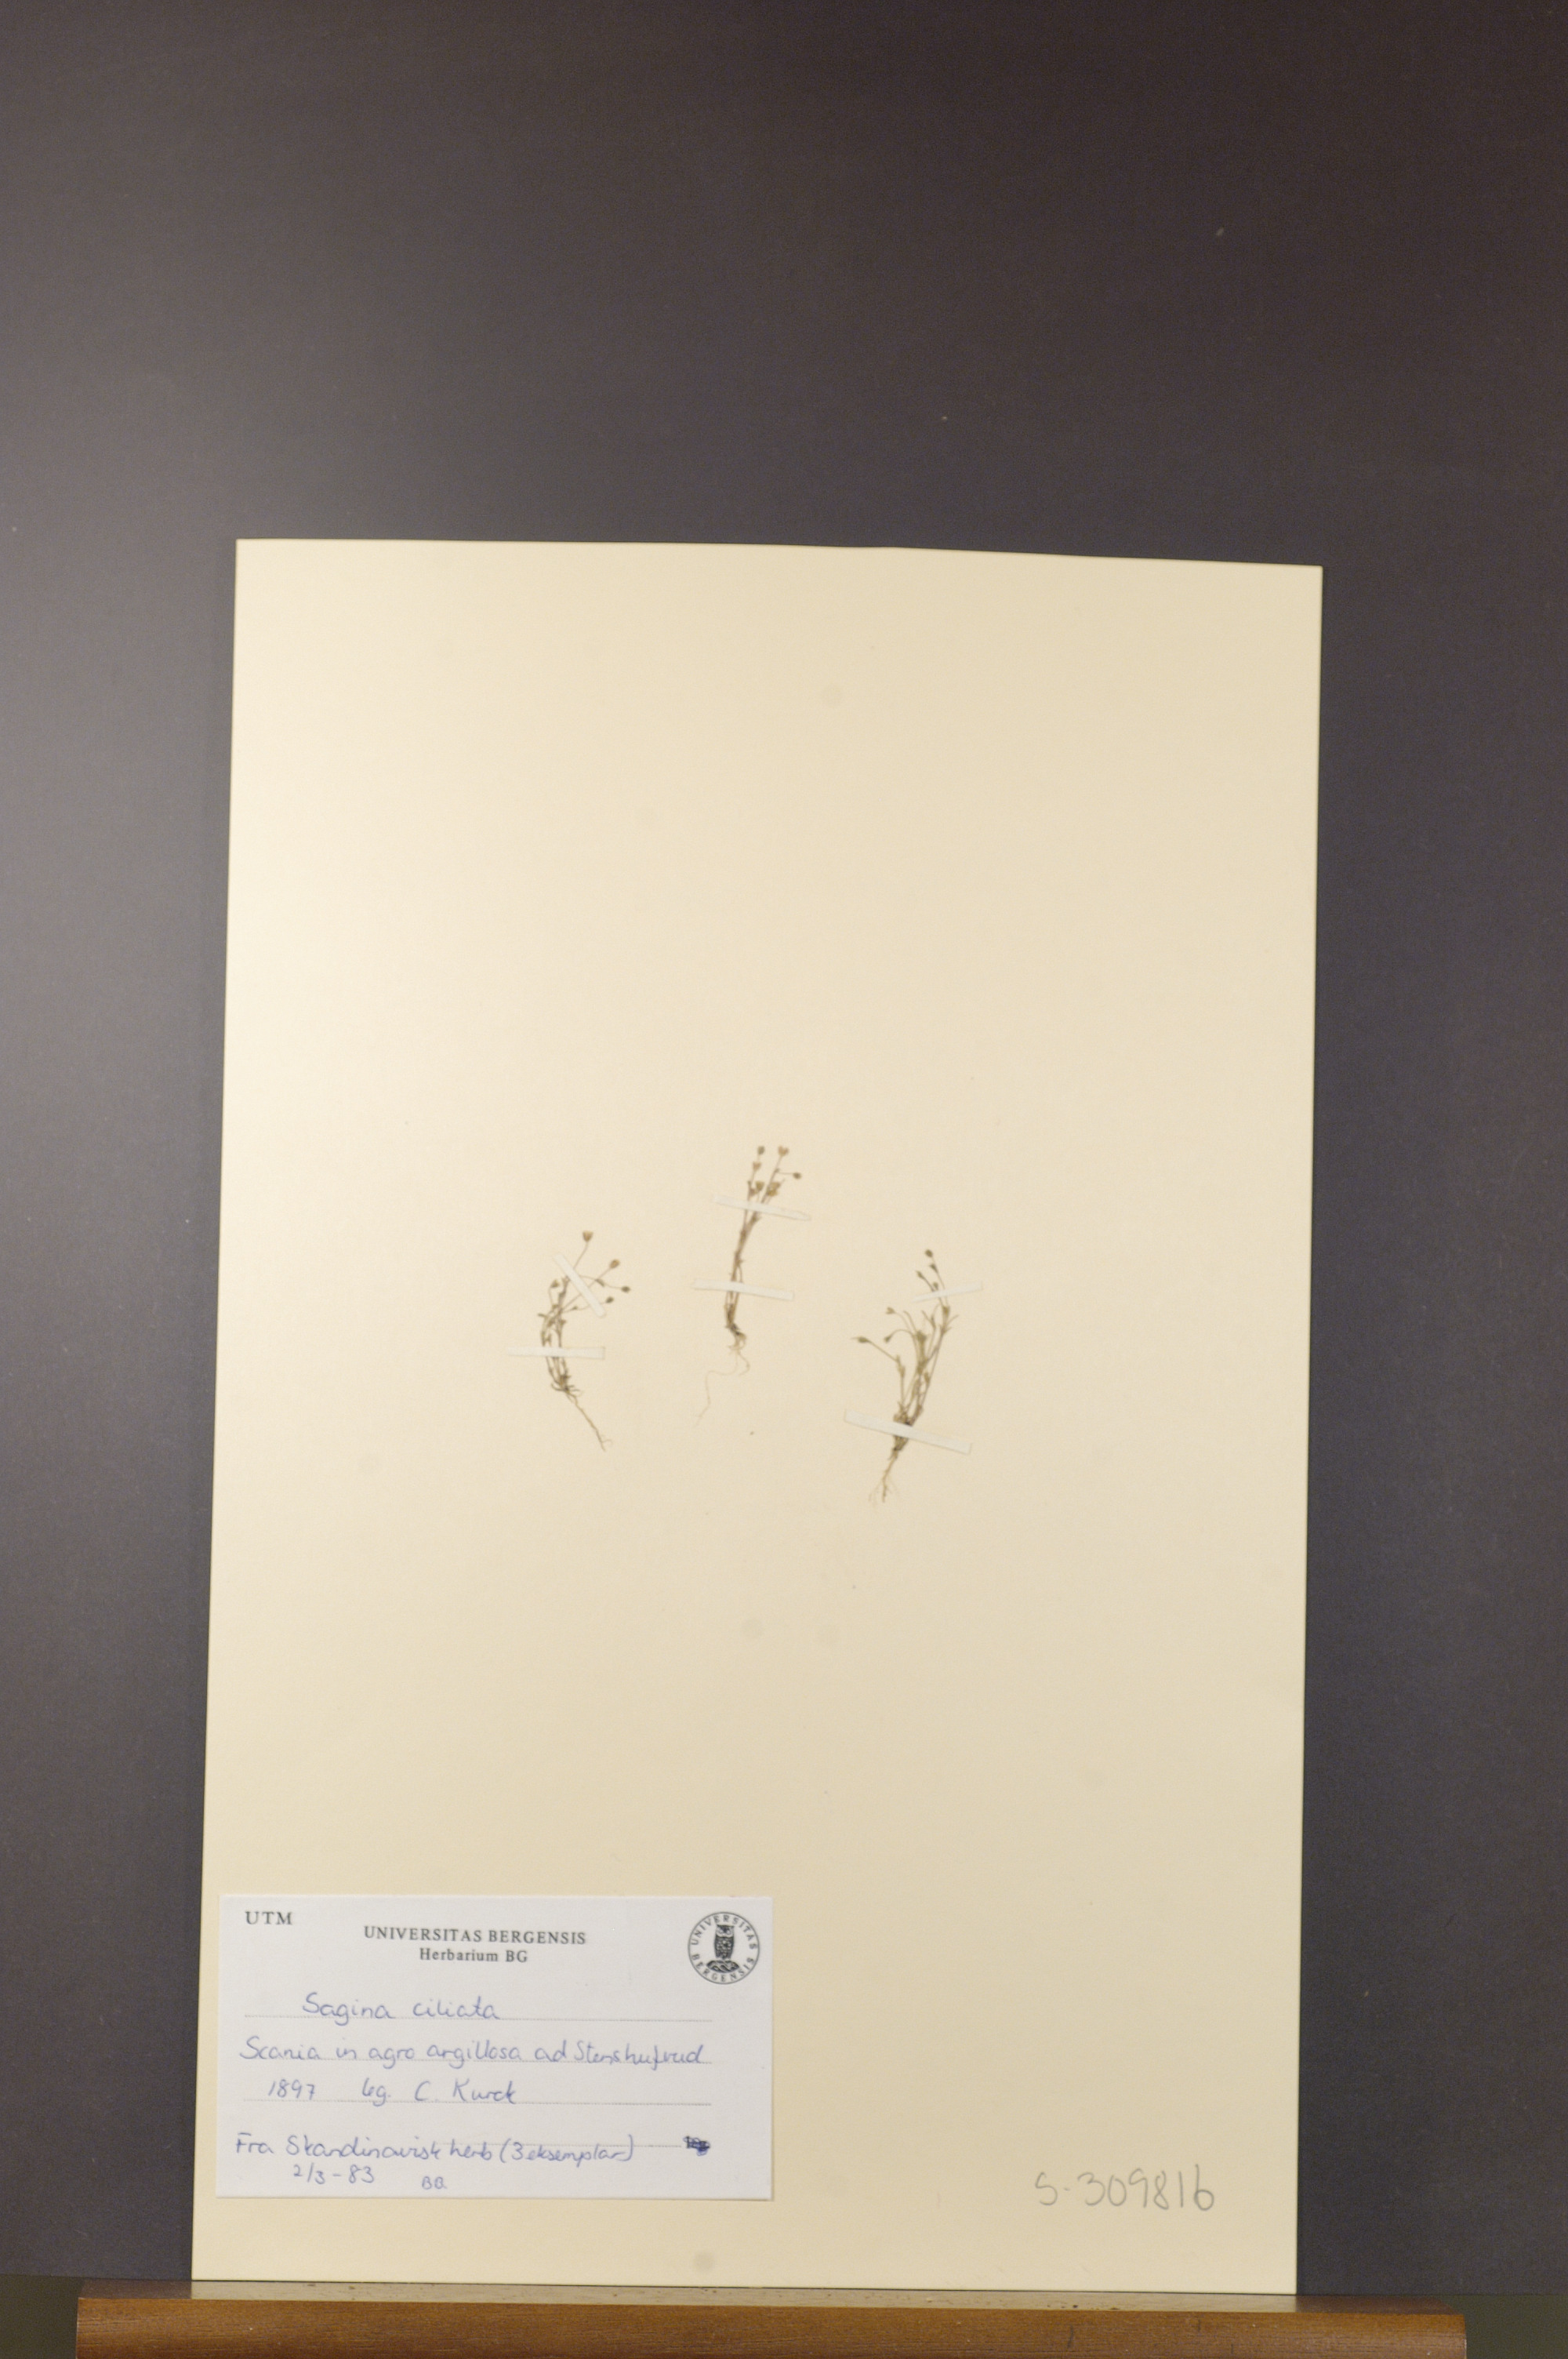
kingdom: Plantae
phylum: Tracheophyta
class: Magnoliopsida
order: Caryophyllales
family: Caryophyllaceae
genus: Sagina
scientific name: Sagina apetala
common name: Annual pearlwort
